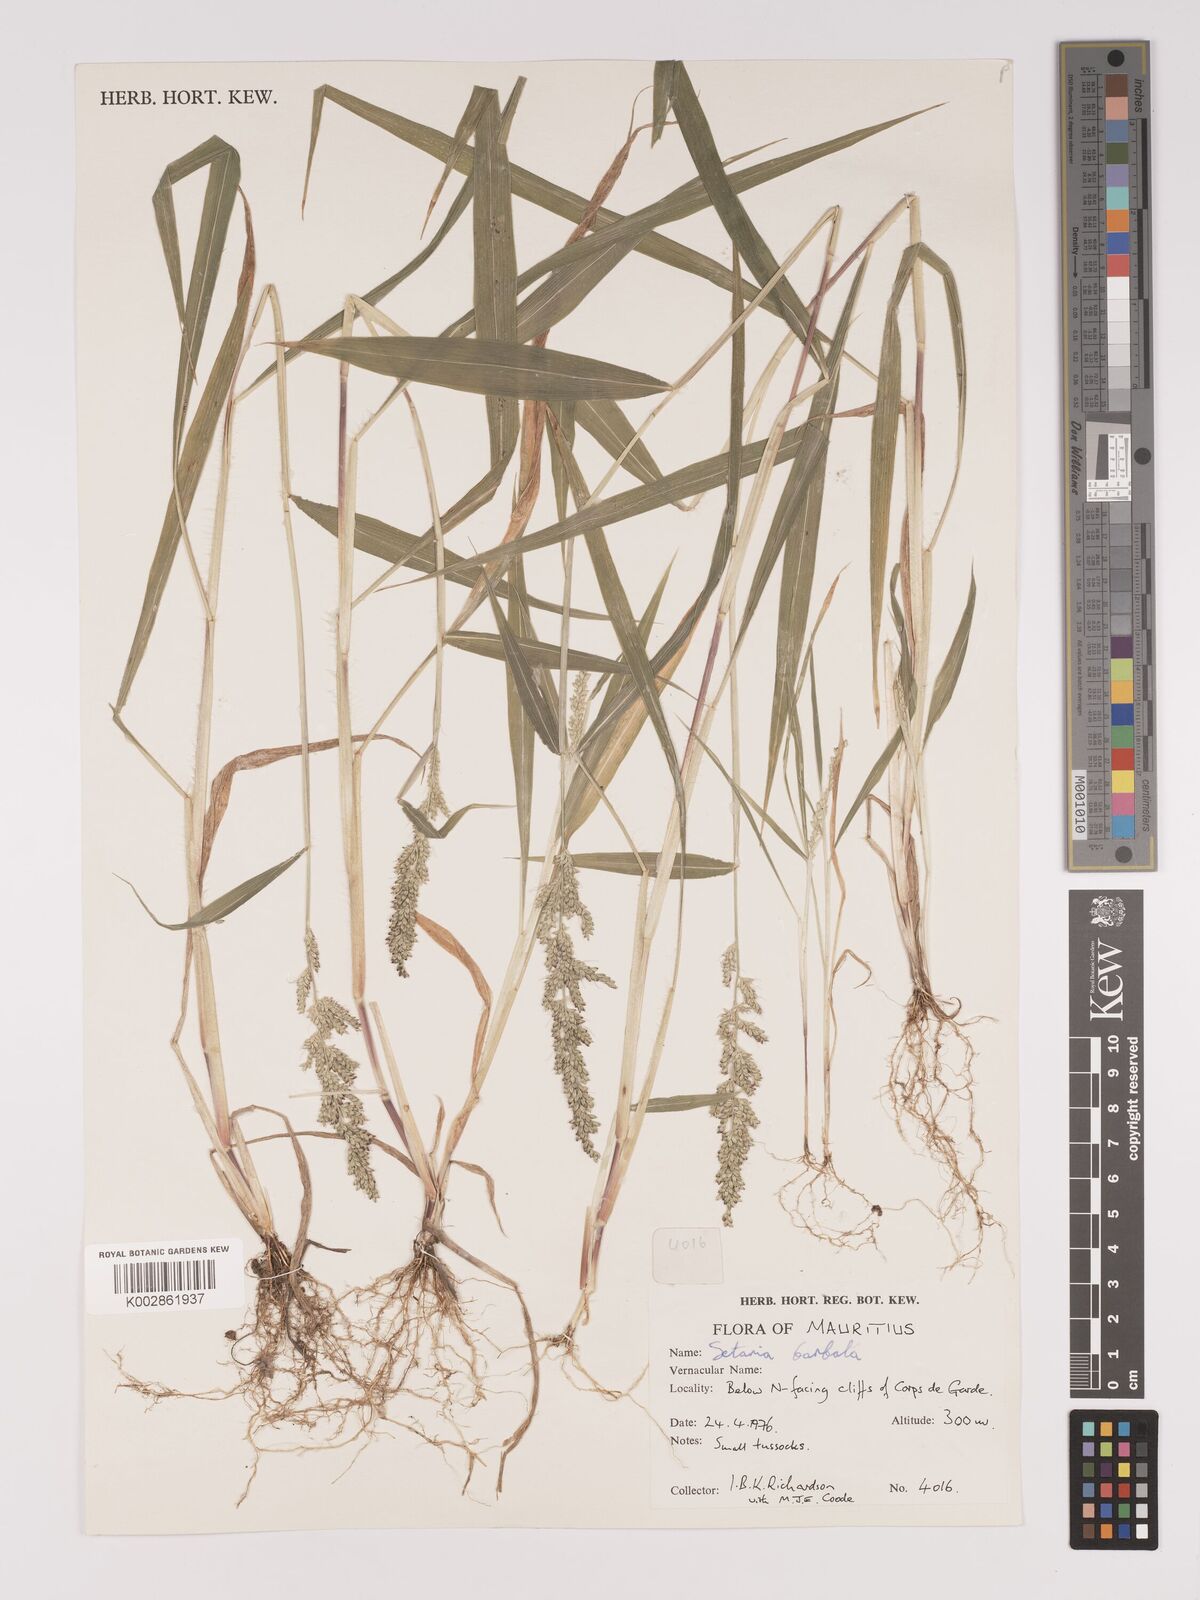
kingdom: Plantae
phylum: Tracheophyta
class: Liliopsida
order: Poales
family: Poaceae
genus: Setaria
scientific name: Setaria barbata
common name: East indian bristlegrass
